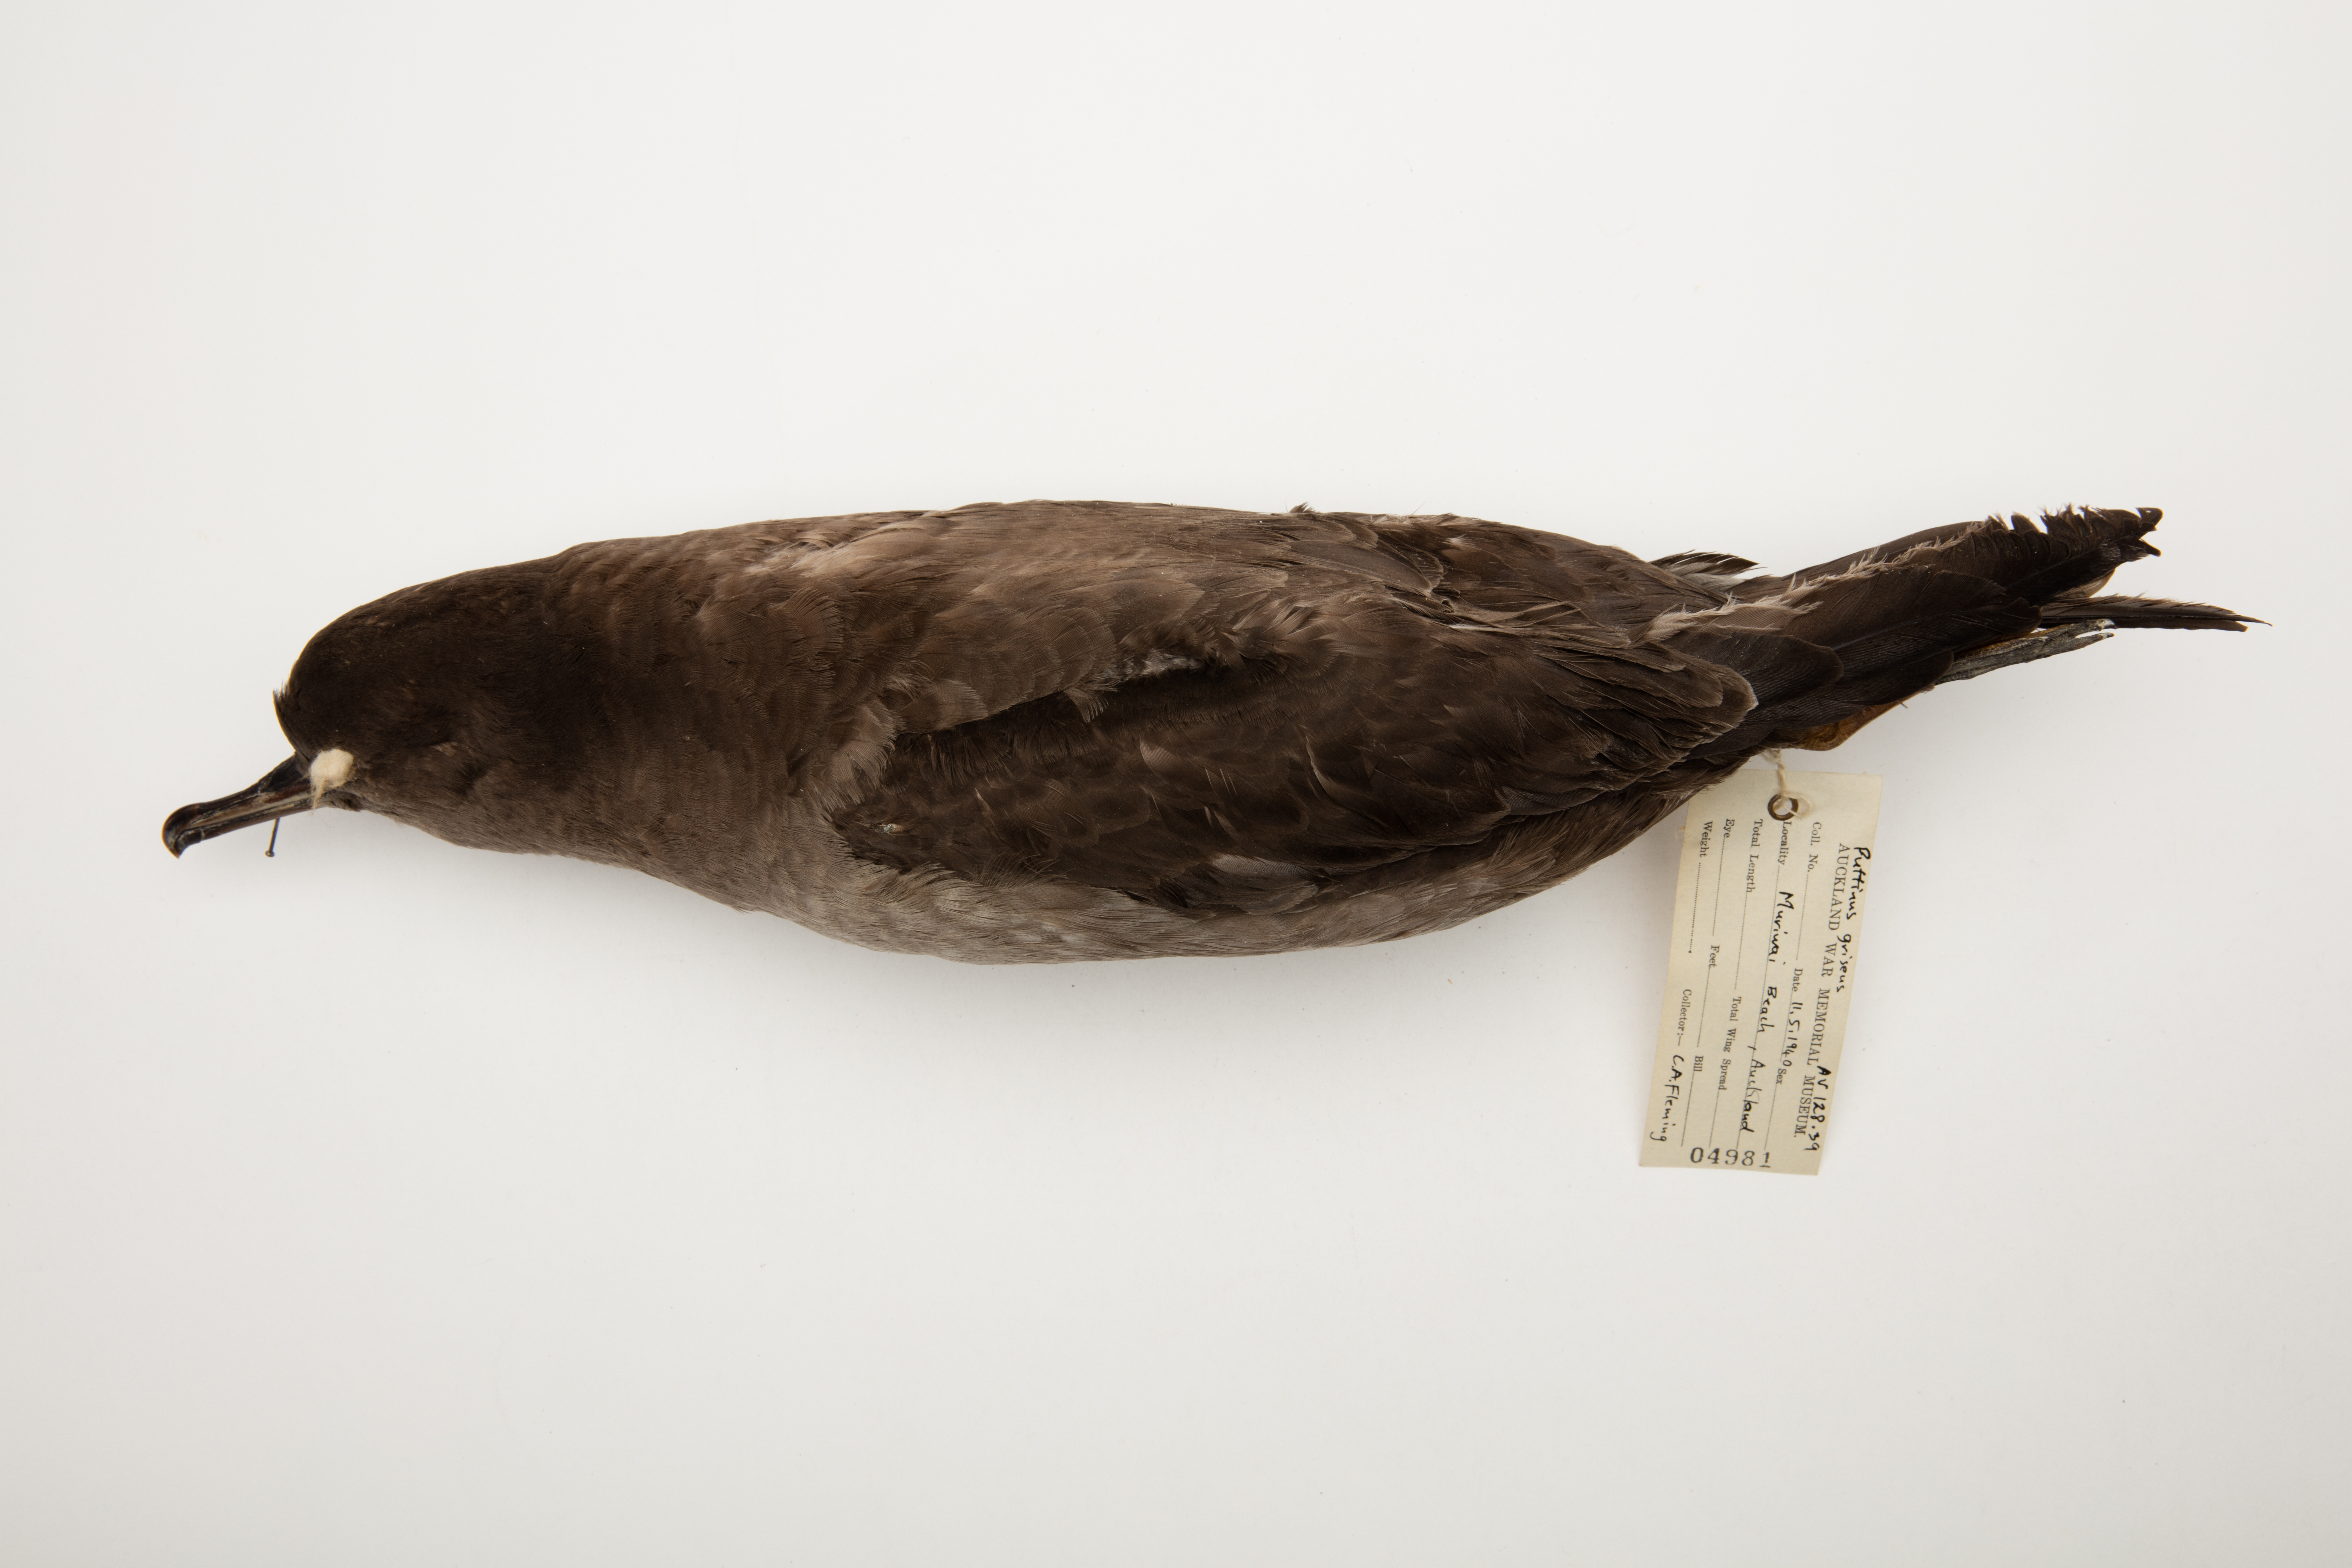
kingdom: Animalia
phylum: Chordata
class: Aves
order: Procellariiformes
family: Procellariidae
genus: Puffinus
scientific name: Puffinus griseus
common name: Sooty shearwater
